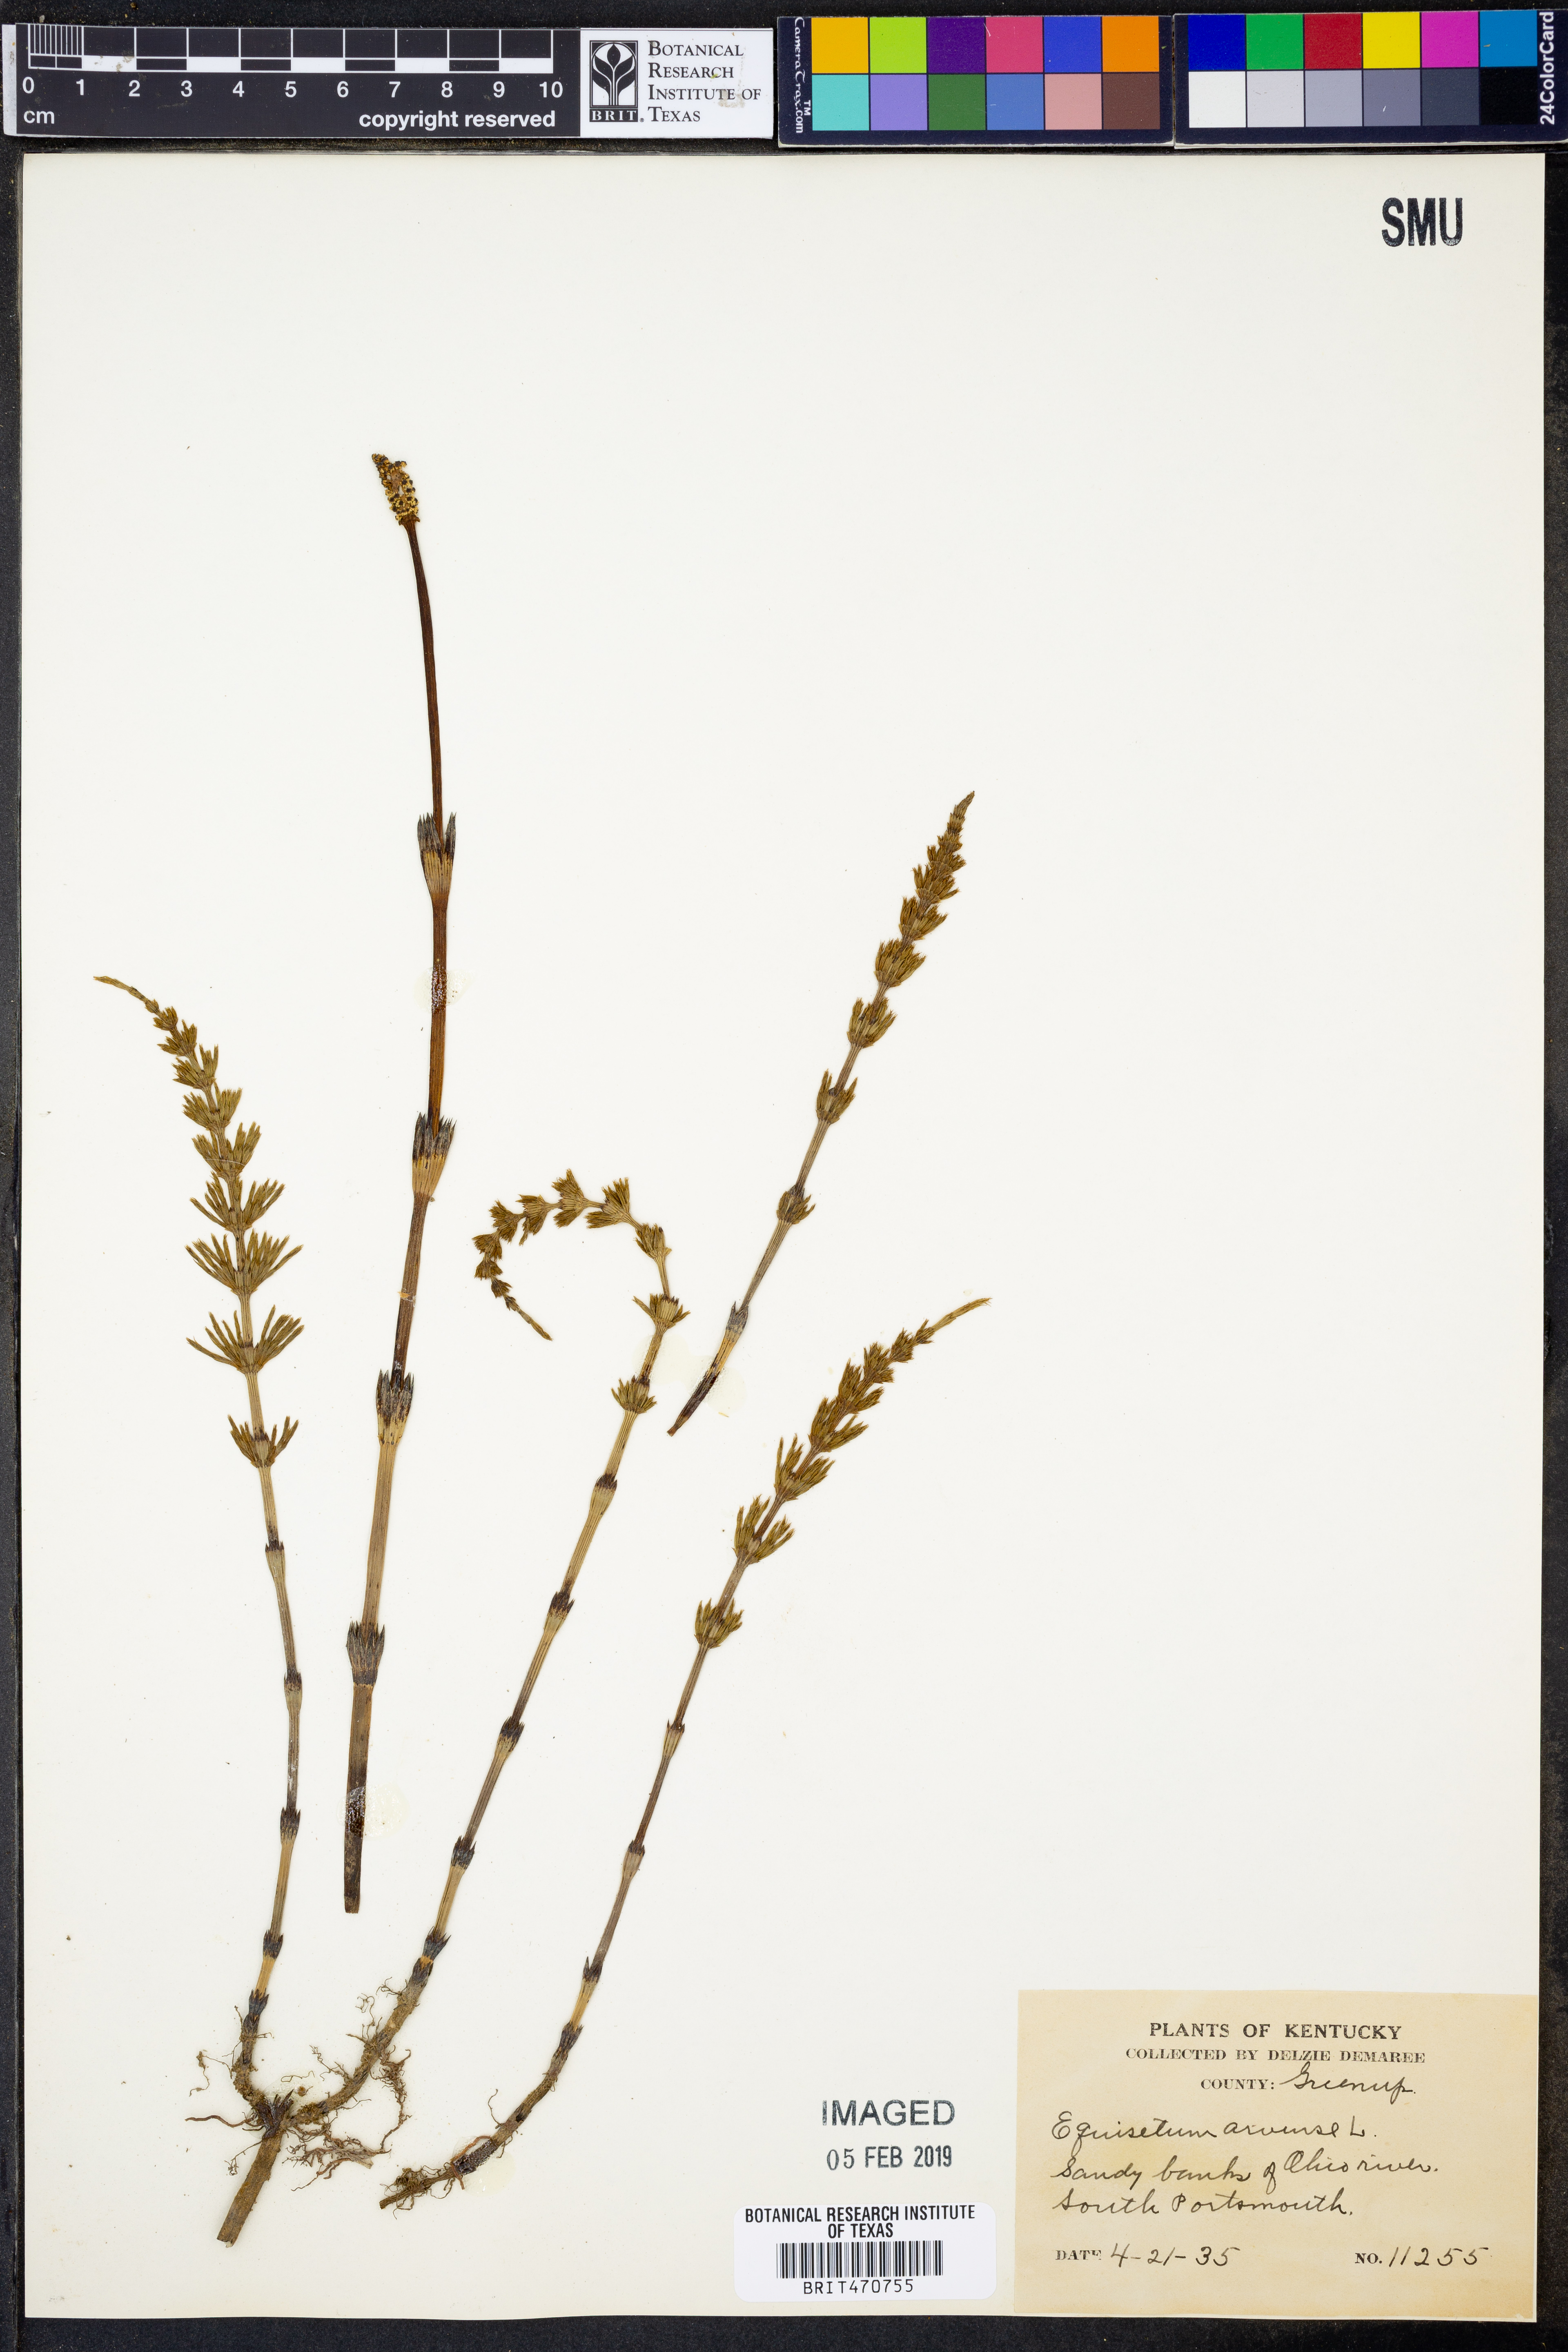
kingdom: Plantae
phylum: Tracheophyta
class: Polypodiopsida
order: Equisetales
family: Equisetaceae
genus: Equisetum
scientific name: Equisetum arvense
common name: Field horsetail
